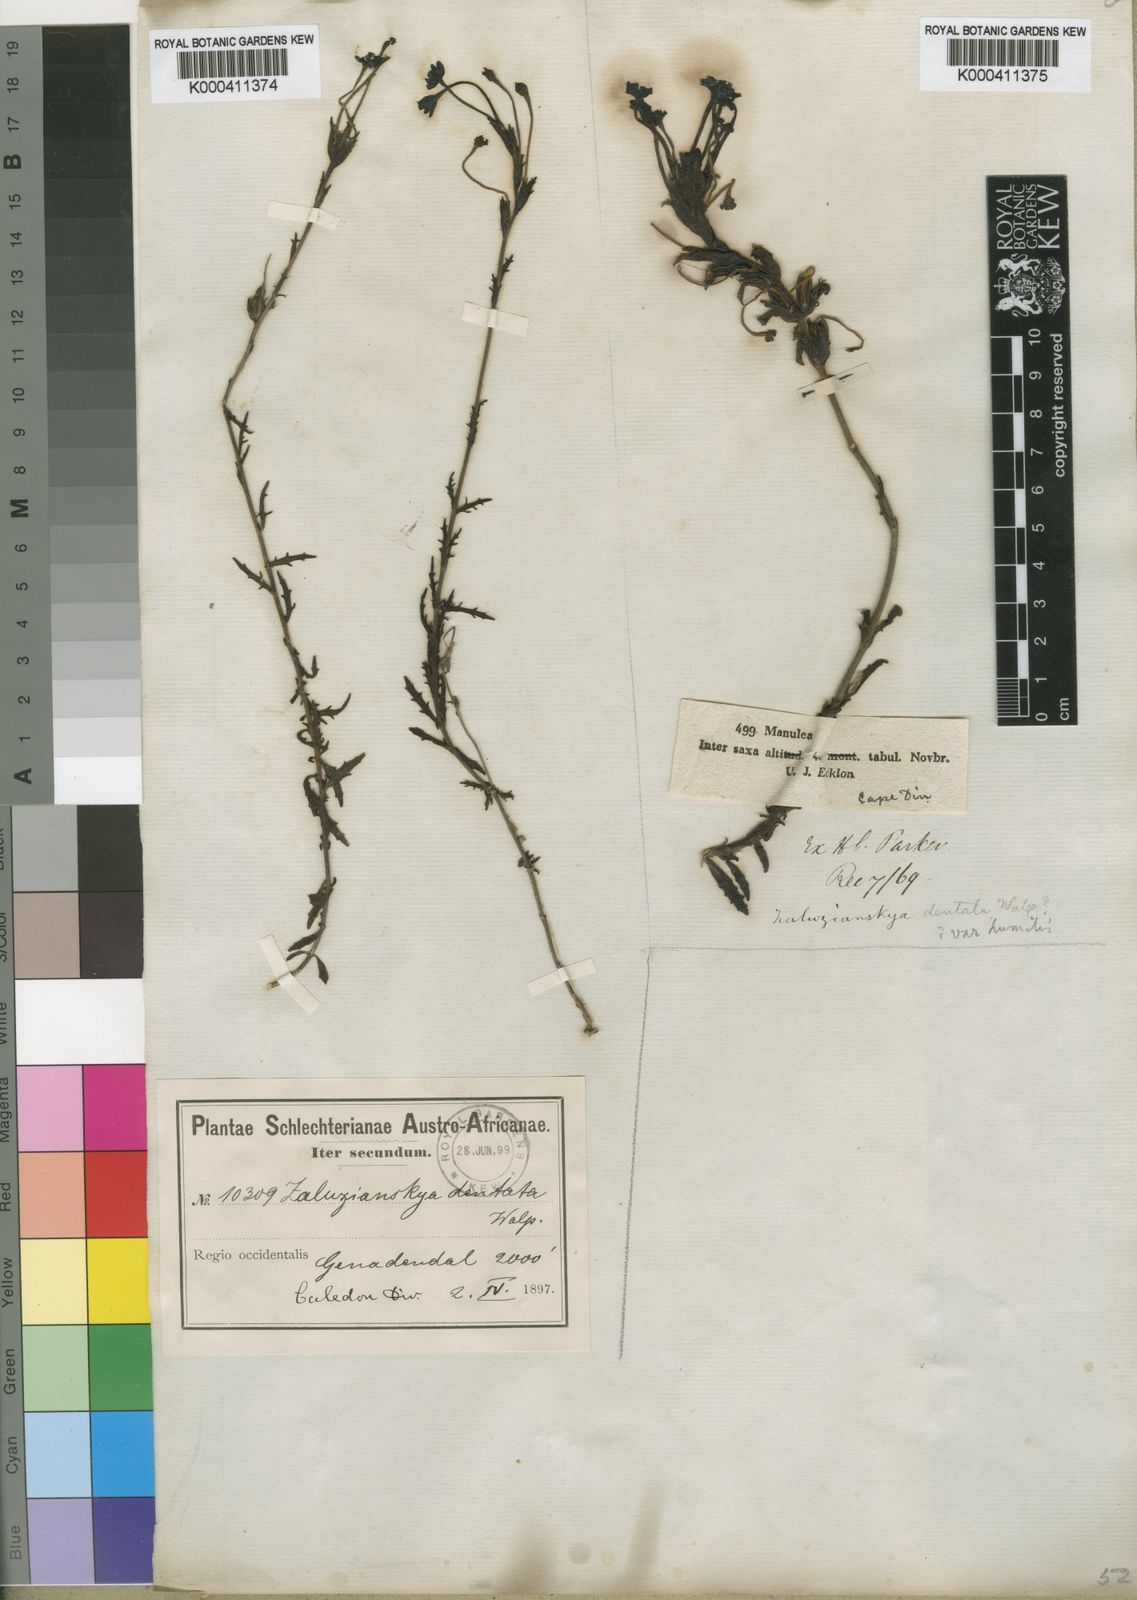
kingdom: Plantae
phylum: Tracheophyta
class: Magnoliopsida
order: Lamiales
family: Scrophulariaceae
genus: Zaluzianskya
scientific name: Zaluzianskya capensis
